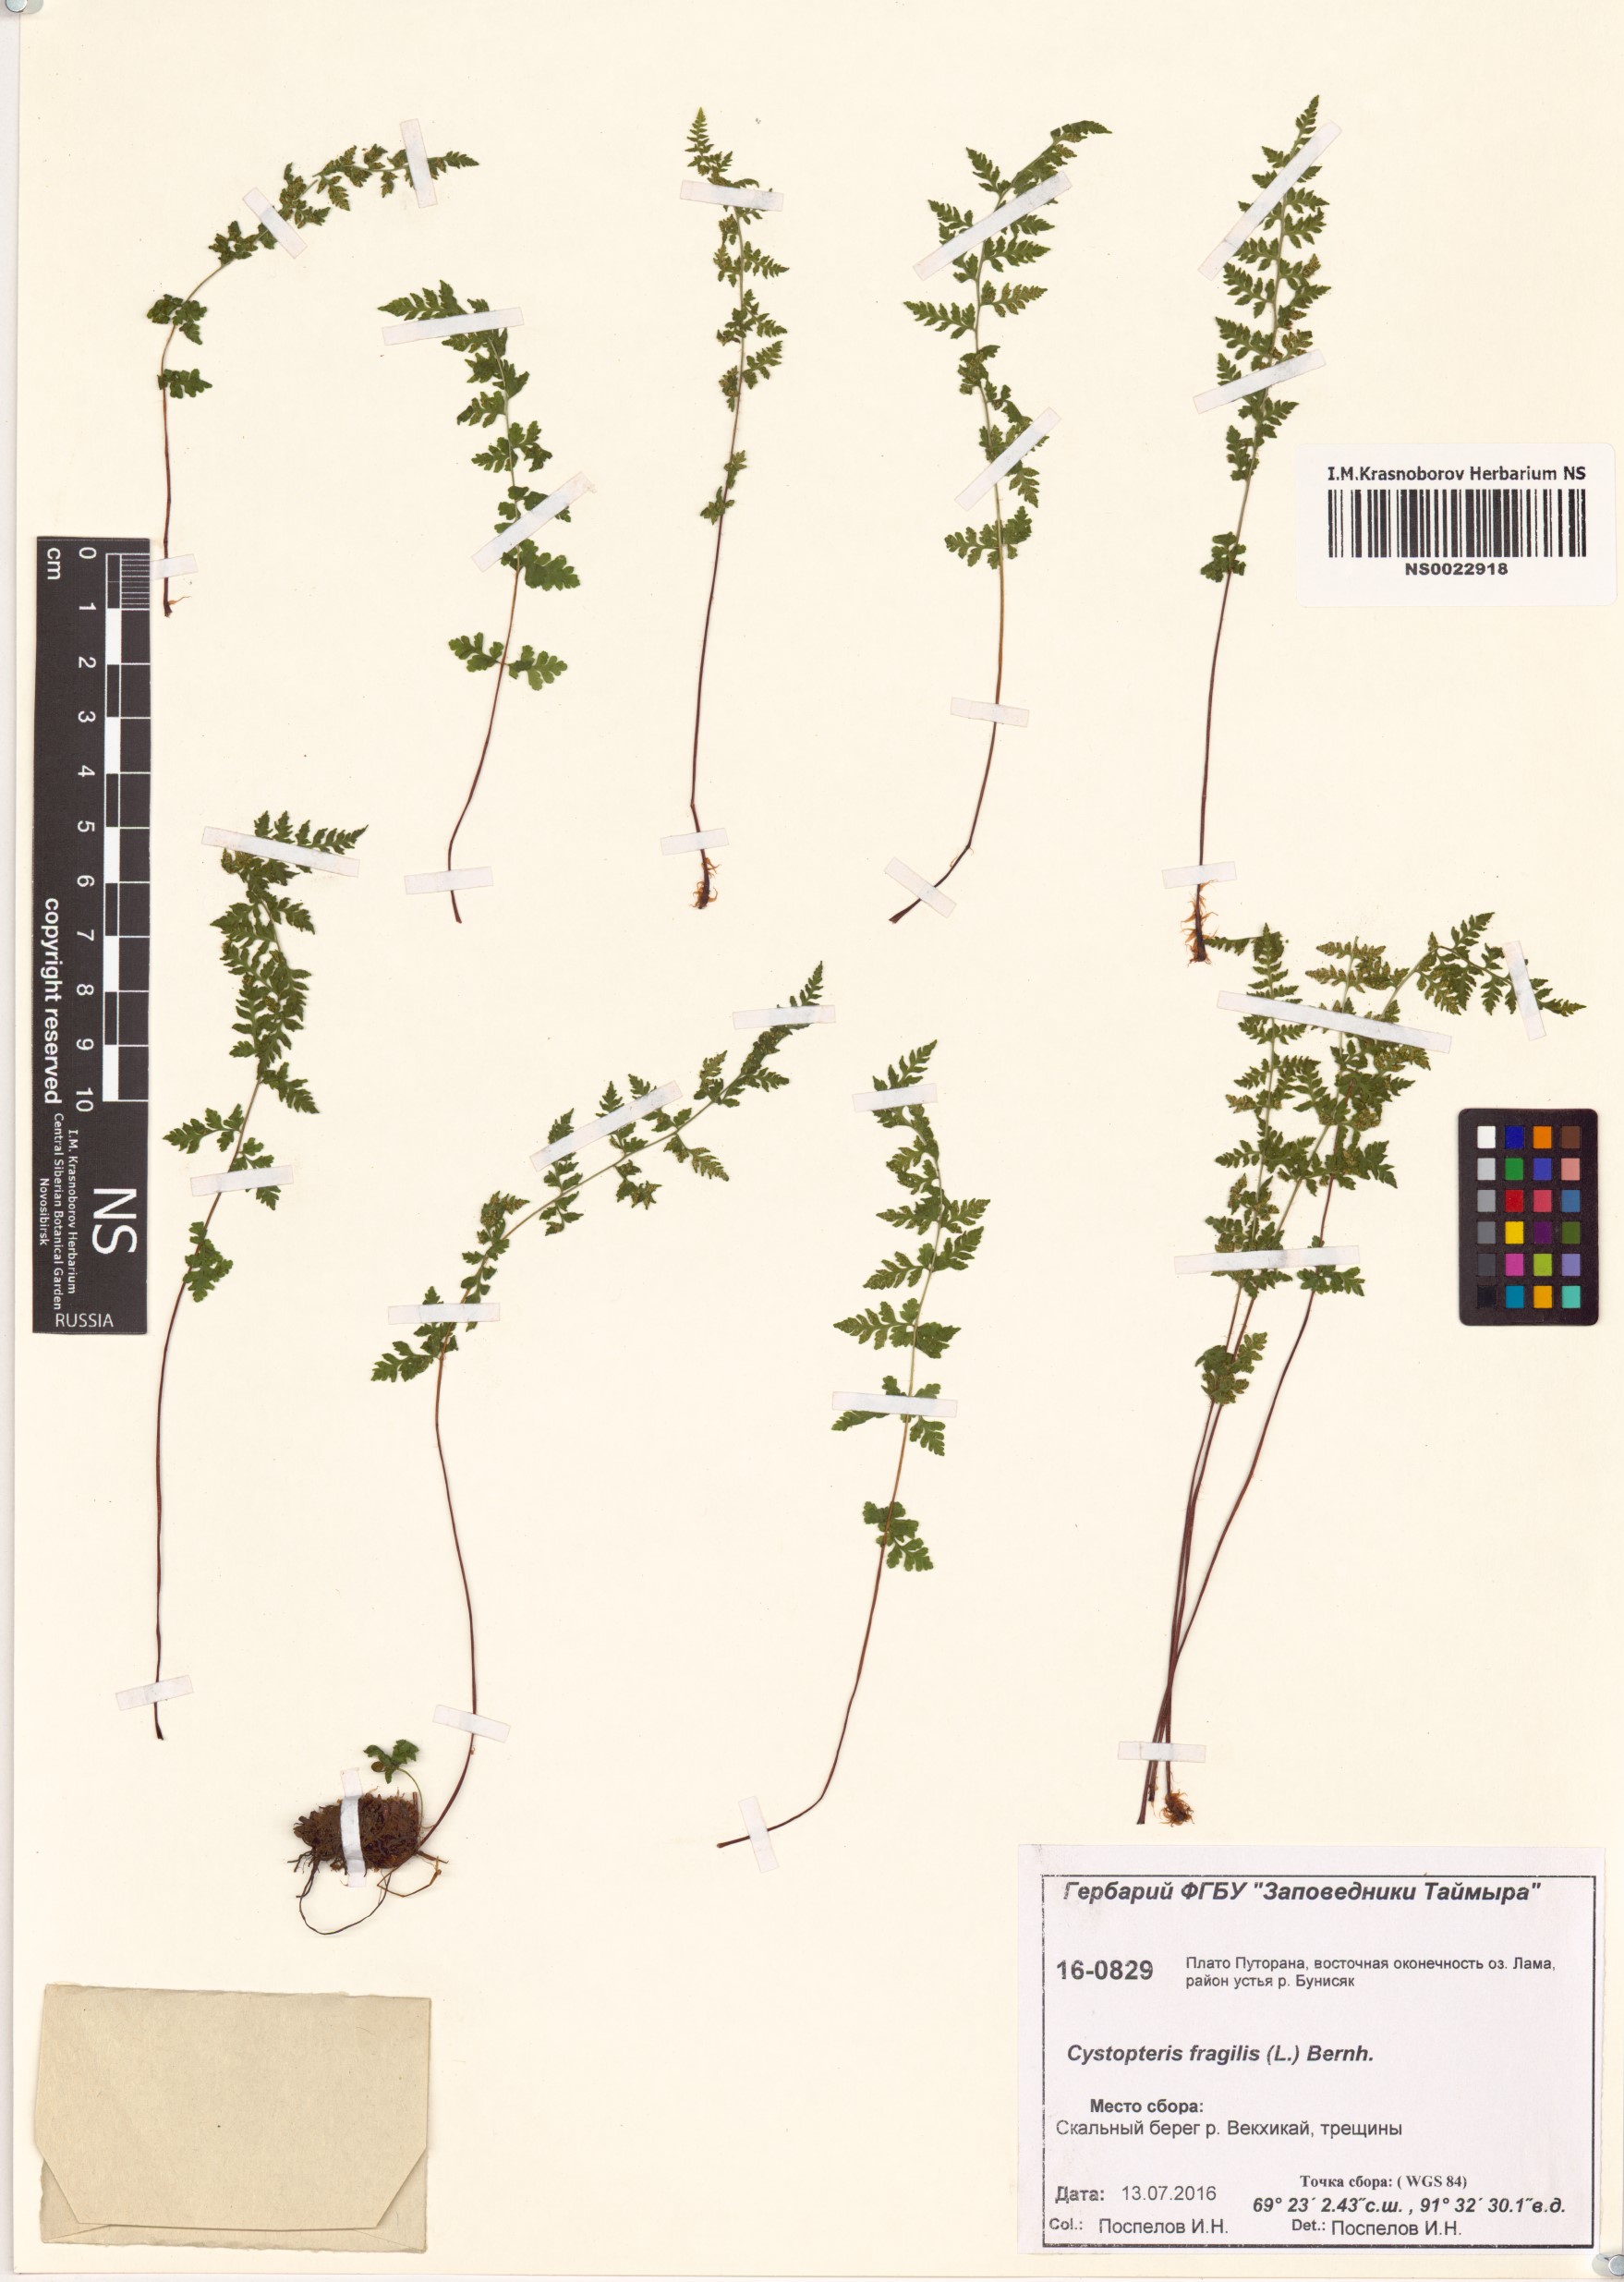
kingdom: Plantae
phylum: Tracheophyta
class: Polypodiopsida
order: Polypodiales
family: Cystopteridaceae
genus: Cystopteris
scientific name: Cystopteris fragilis
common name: Brittle bladder fern
